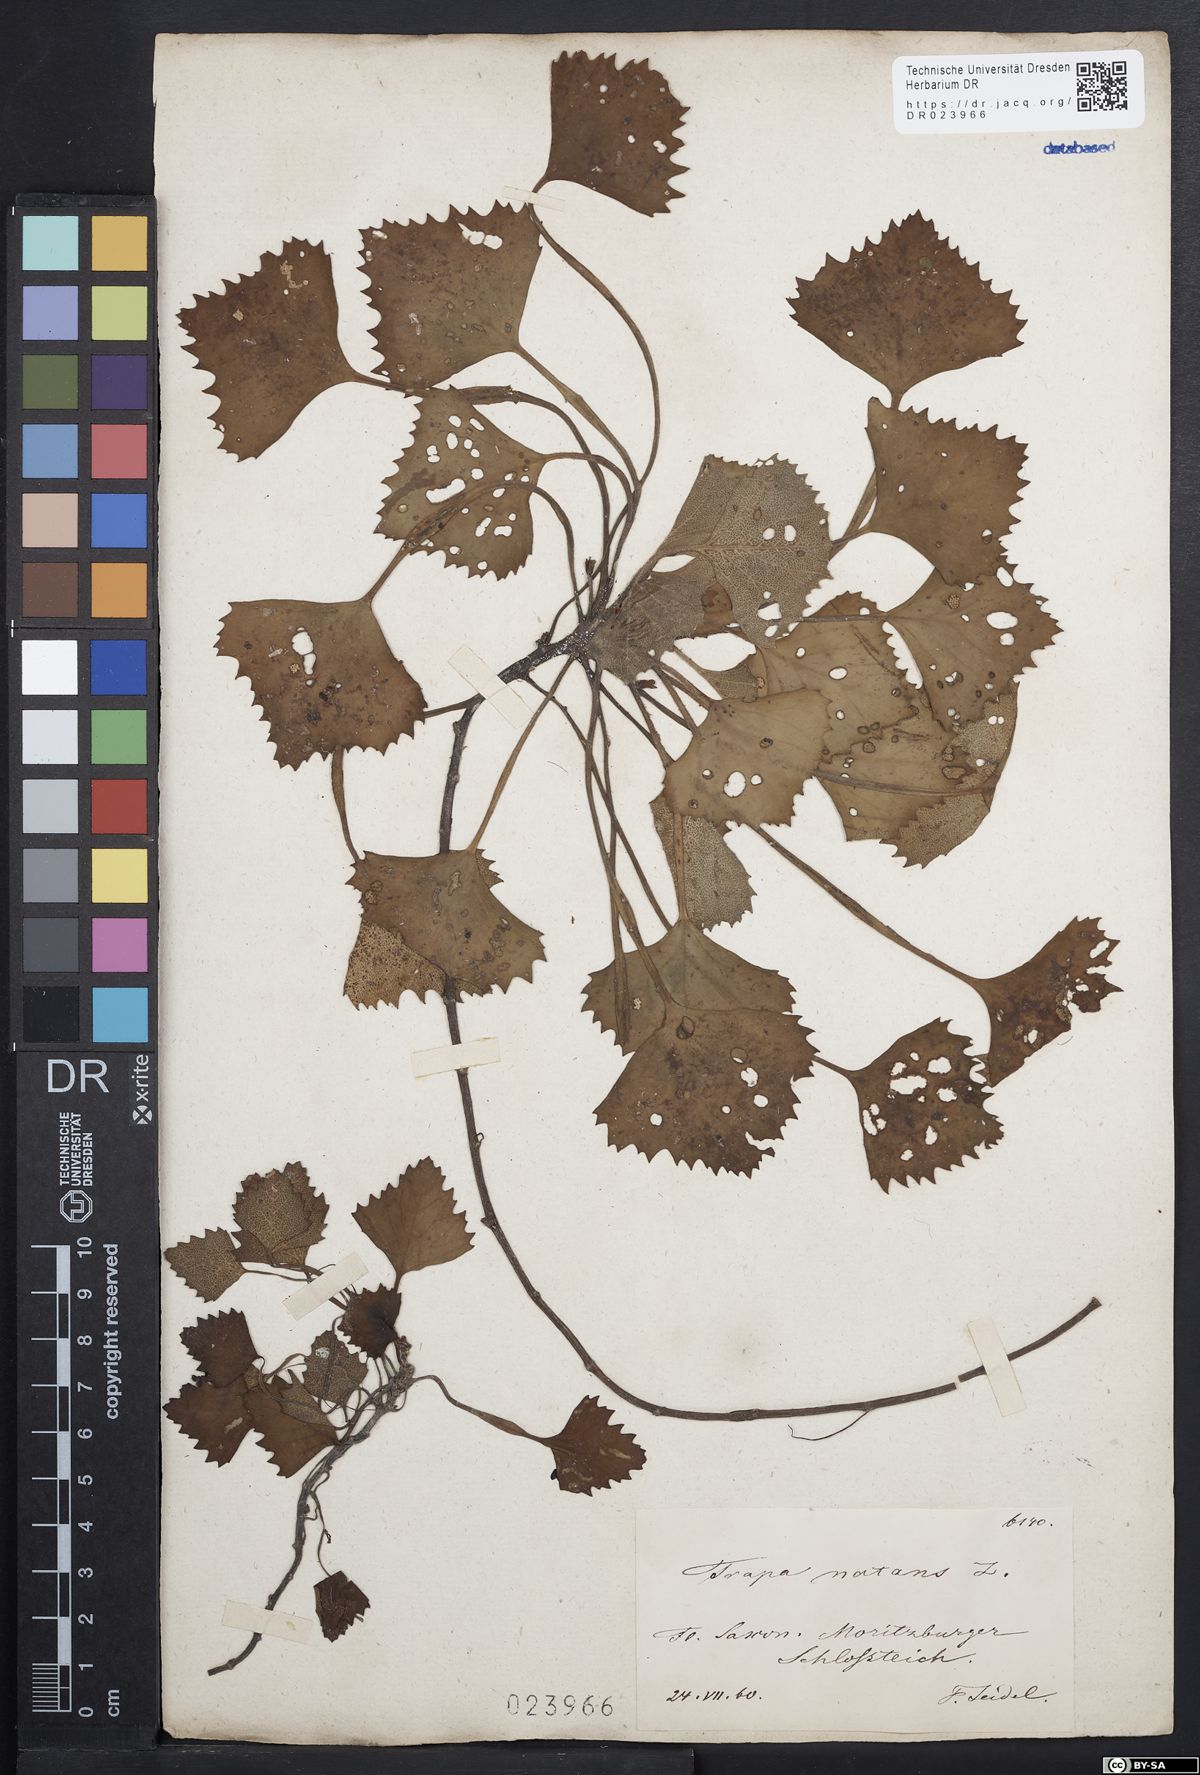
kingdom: Plantae
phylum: Tracheophyta
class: Magnoliopsida
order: Myrtales
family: Lythraceae
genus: Trapa
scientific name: Trapa natans
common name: Water chestnut
